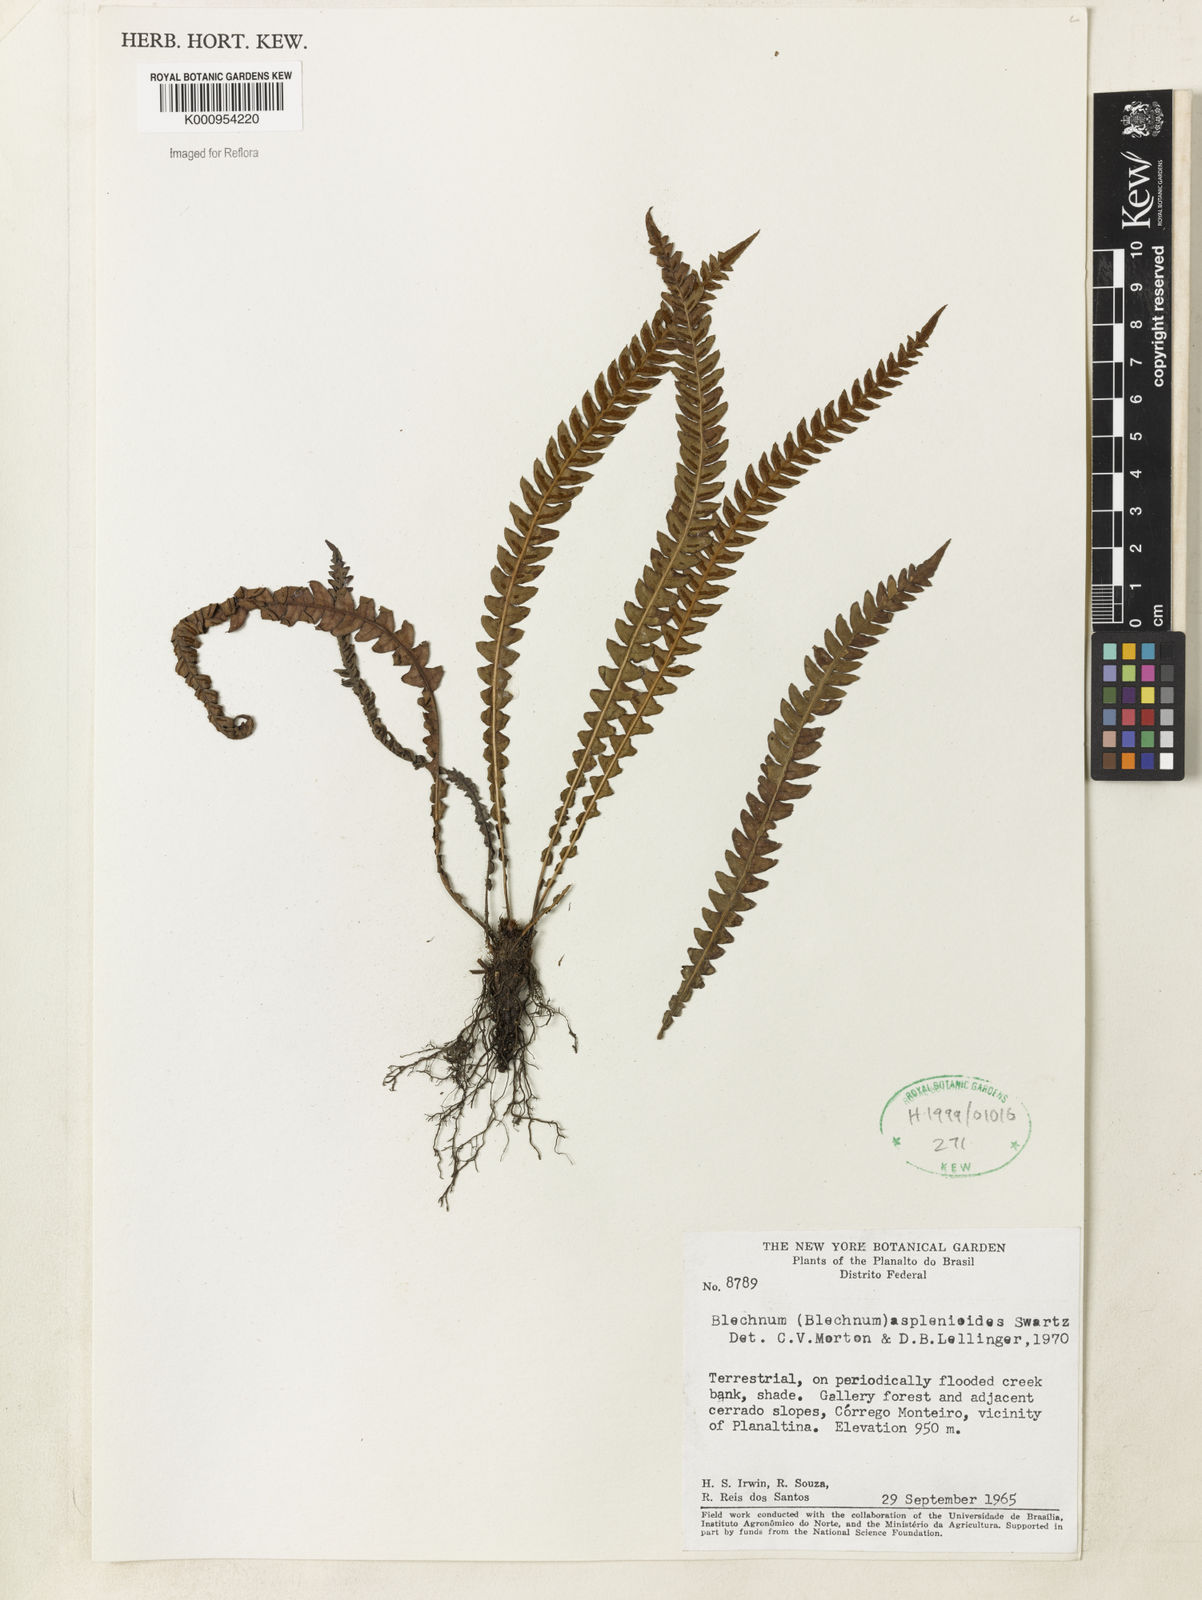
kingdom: Plantae
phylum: Tracheophyta
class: Polypodiopsida
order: Polypodiales
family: Blechnaceae
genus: Blechnum
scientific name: Blechnum asplenioides
